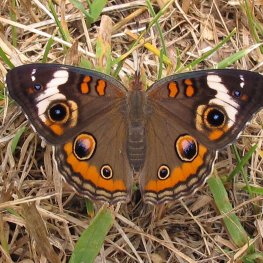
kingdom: Animalia
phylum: Arthropoda
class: Insecta
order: Lepidoptera
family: Nymphalidae
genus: Junonia
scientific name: Junonia coenia
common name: Common Buckeye
